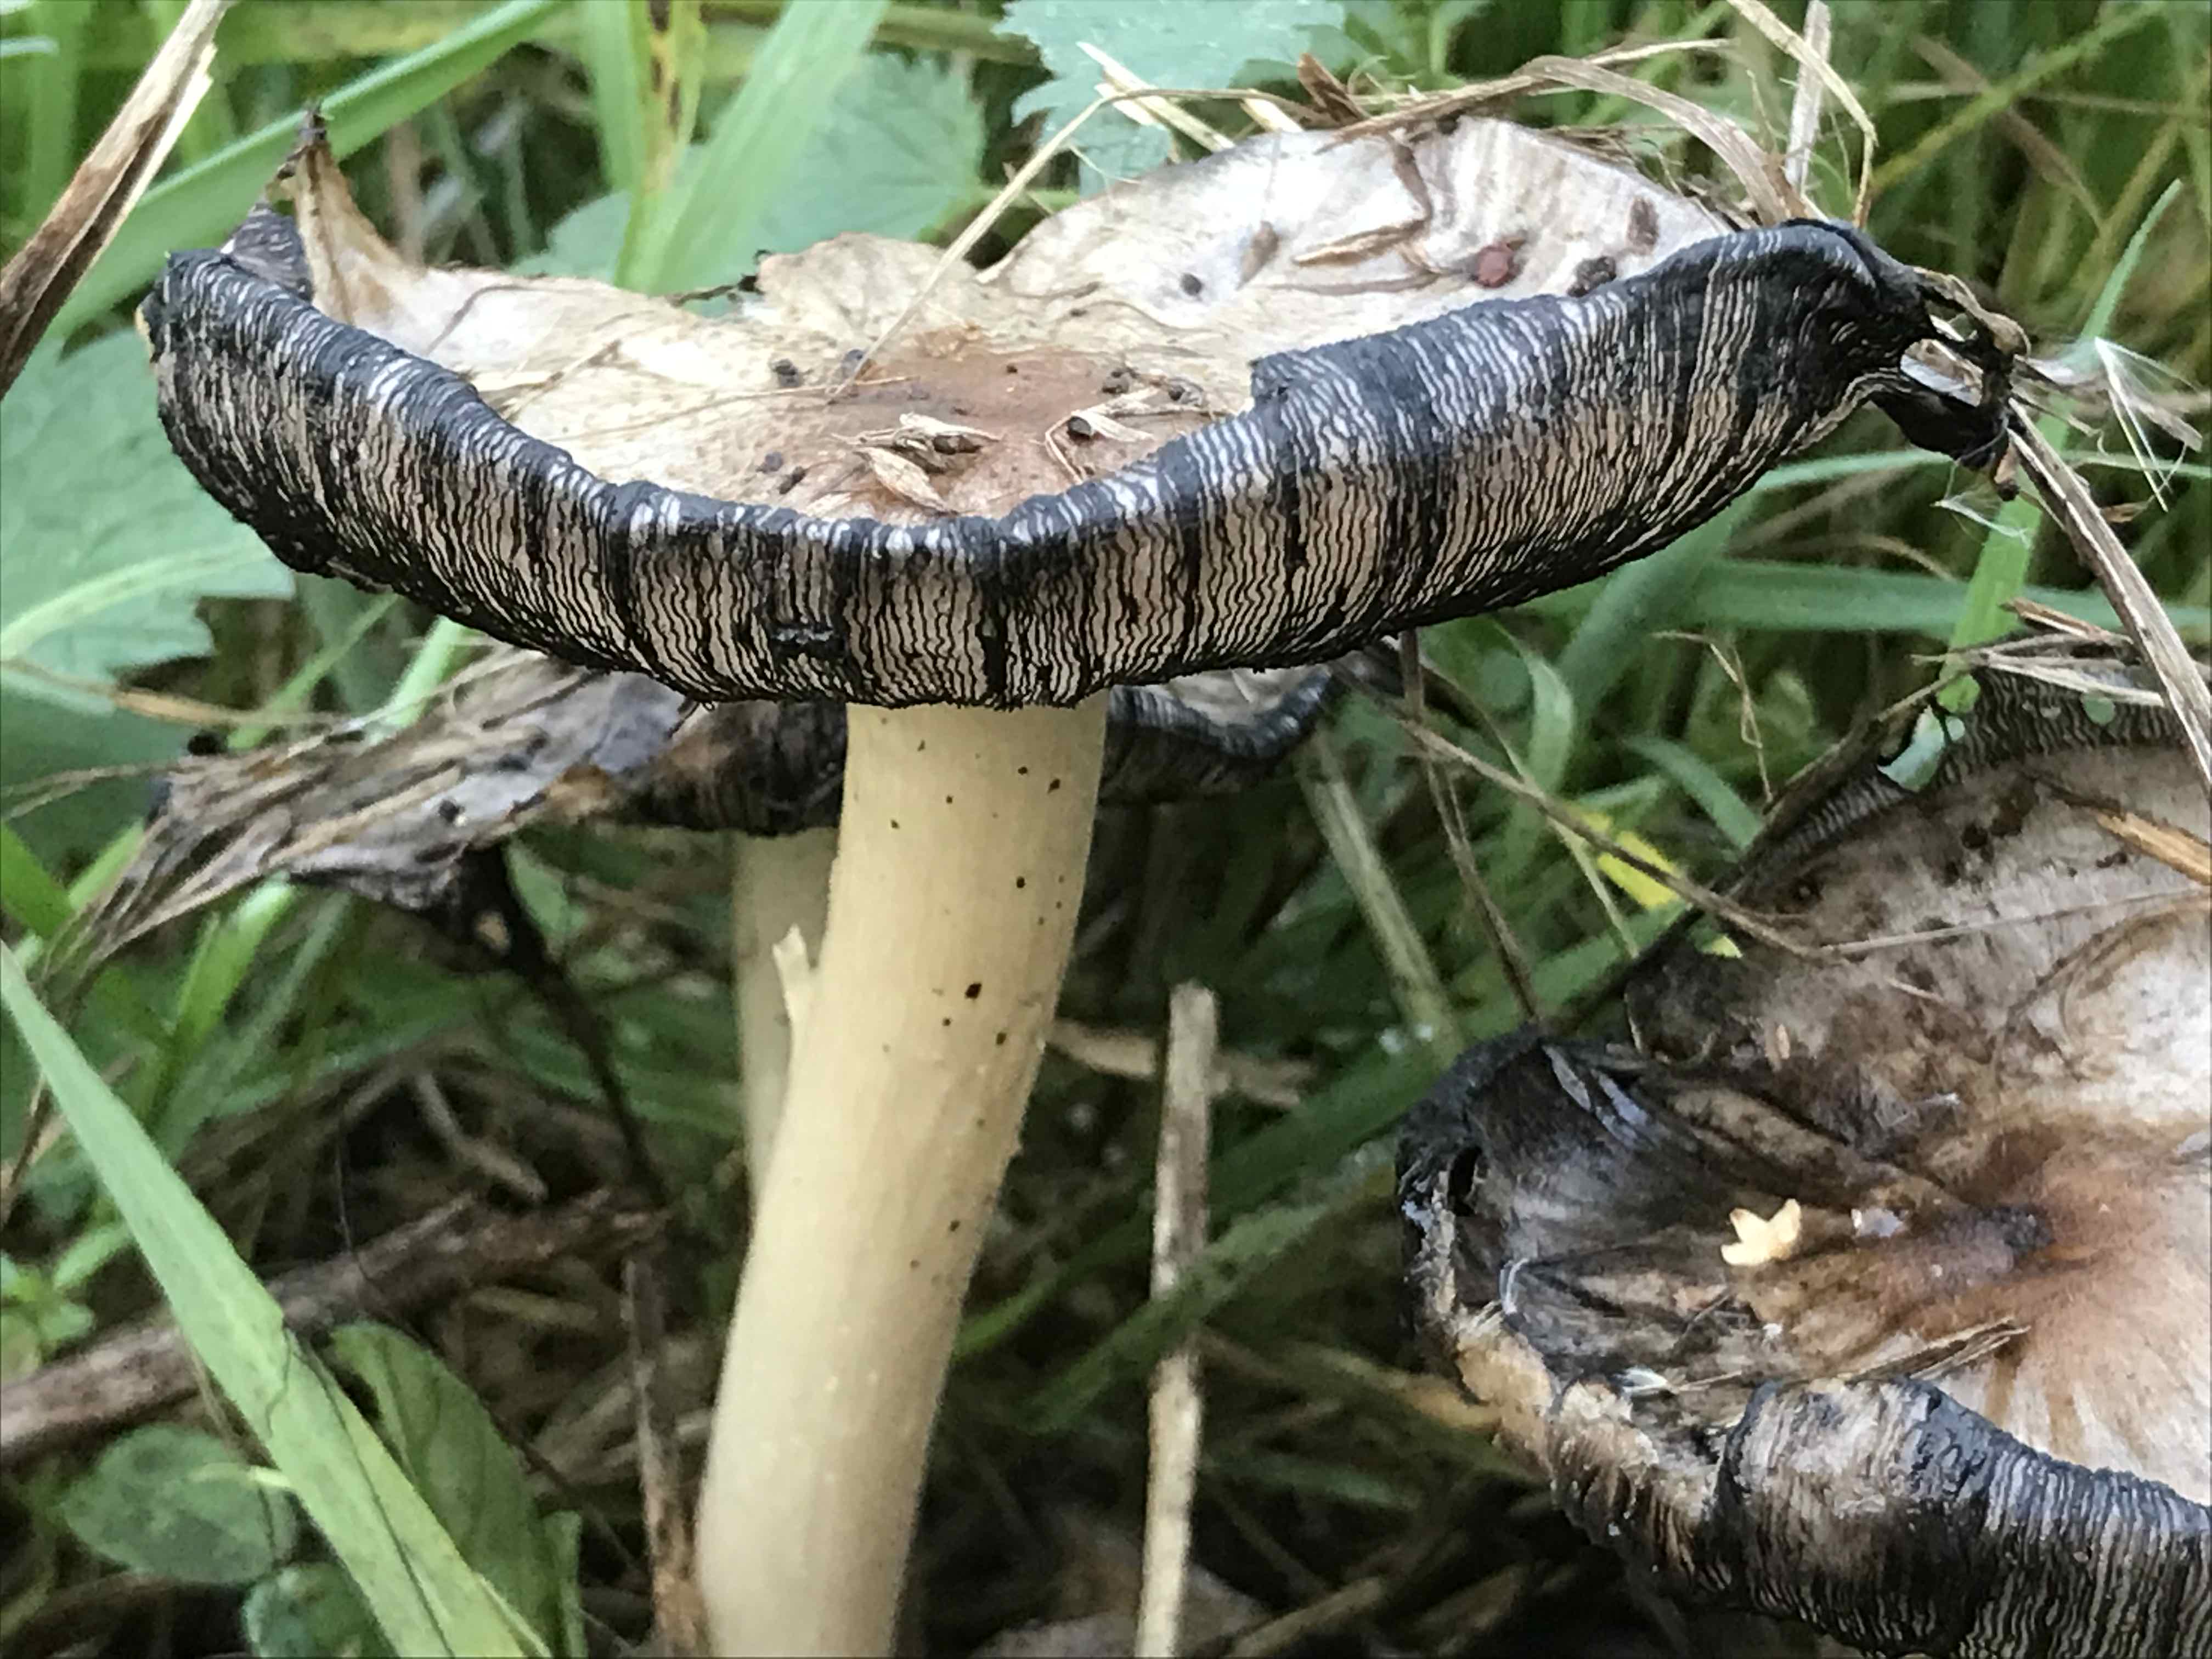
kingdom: Fungi
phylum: Basidiomycota
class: Agaricomycetes
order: Agaricales
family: Psathyrellaceae
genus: Coprinopsis
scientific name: Coprinopsis atramentaria
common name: almindelig blækhat
